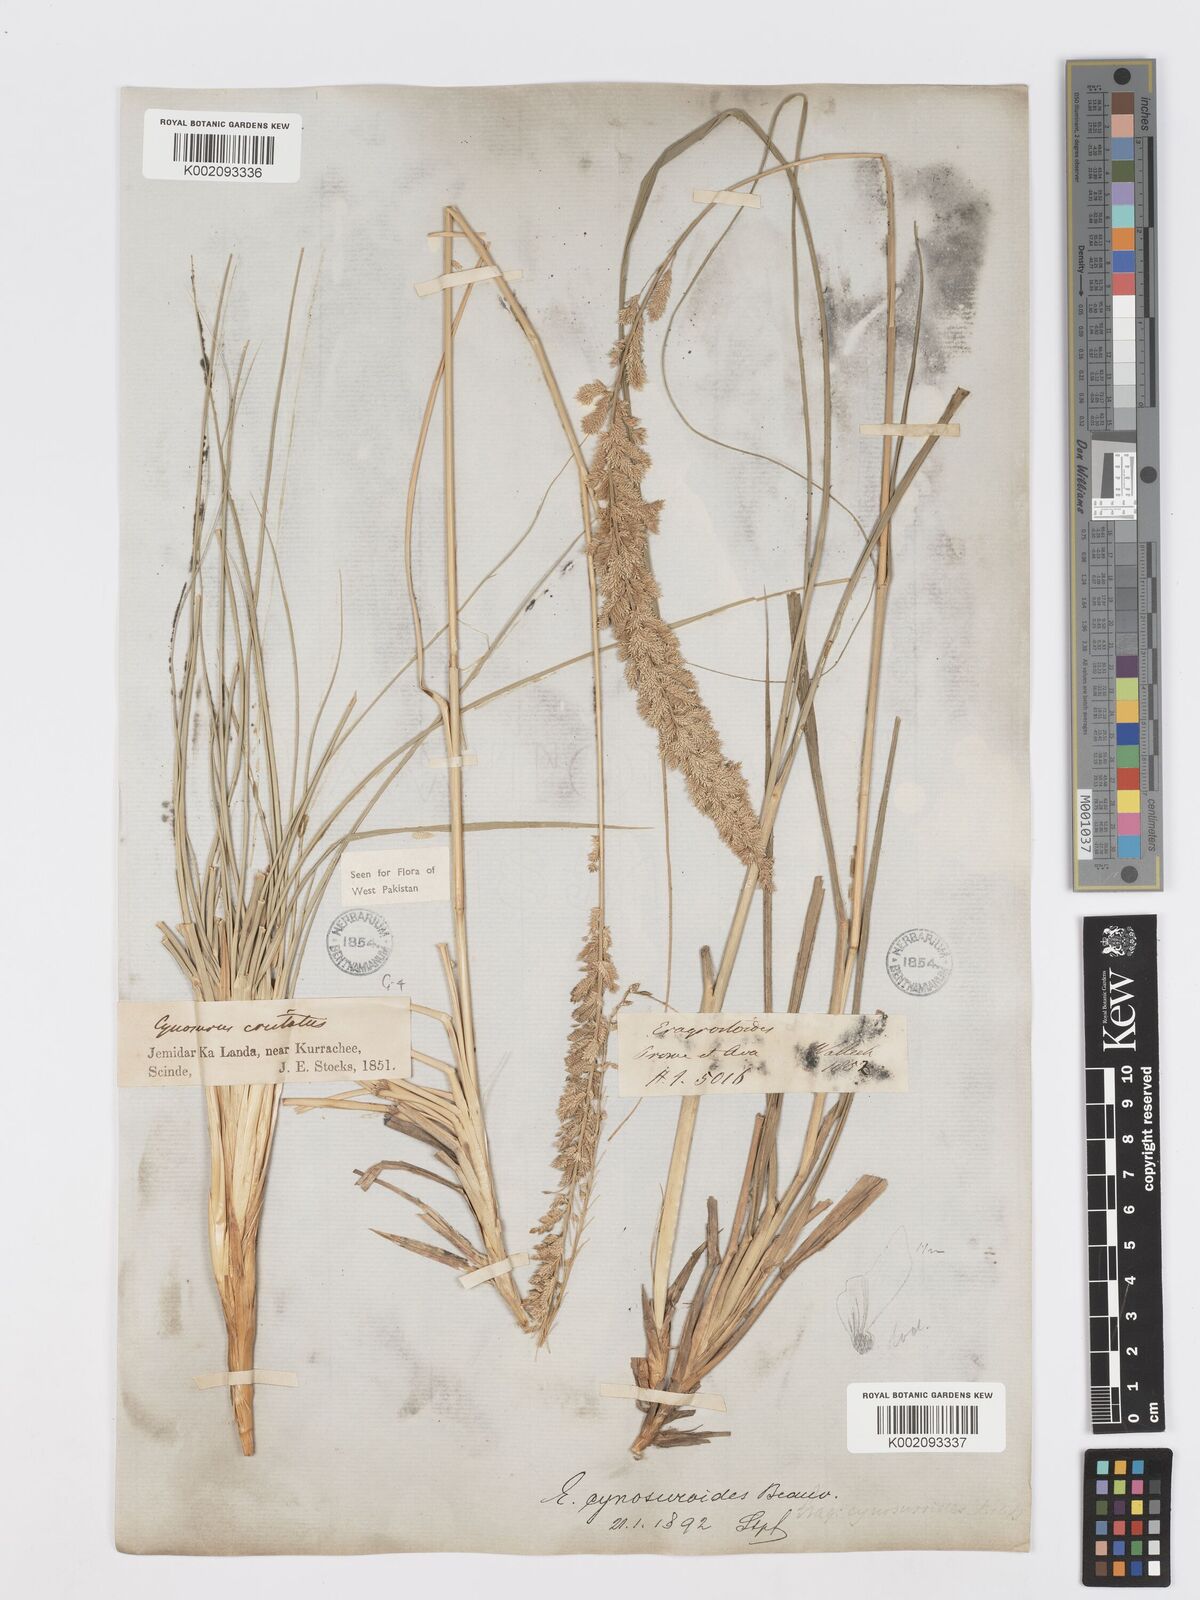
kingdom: Plantae
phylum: Tracheophyta
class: Liliopsida
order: Poales
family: Poaceae
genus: Desmostachya
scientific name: Desmostachya bipinnata
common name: Crowfoot grass
